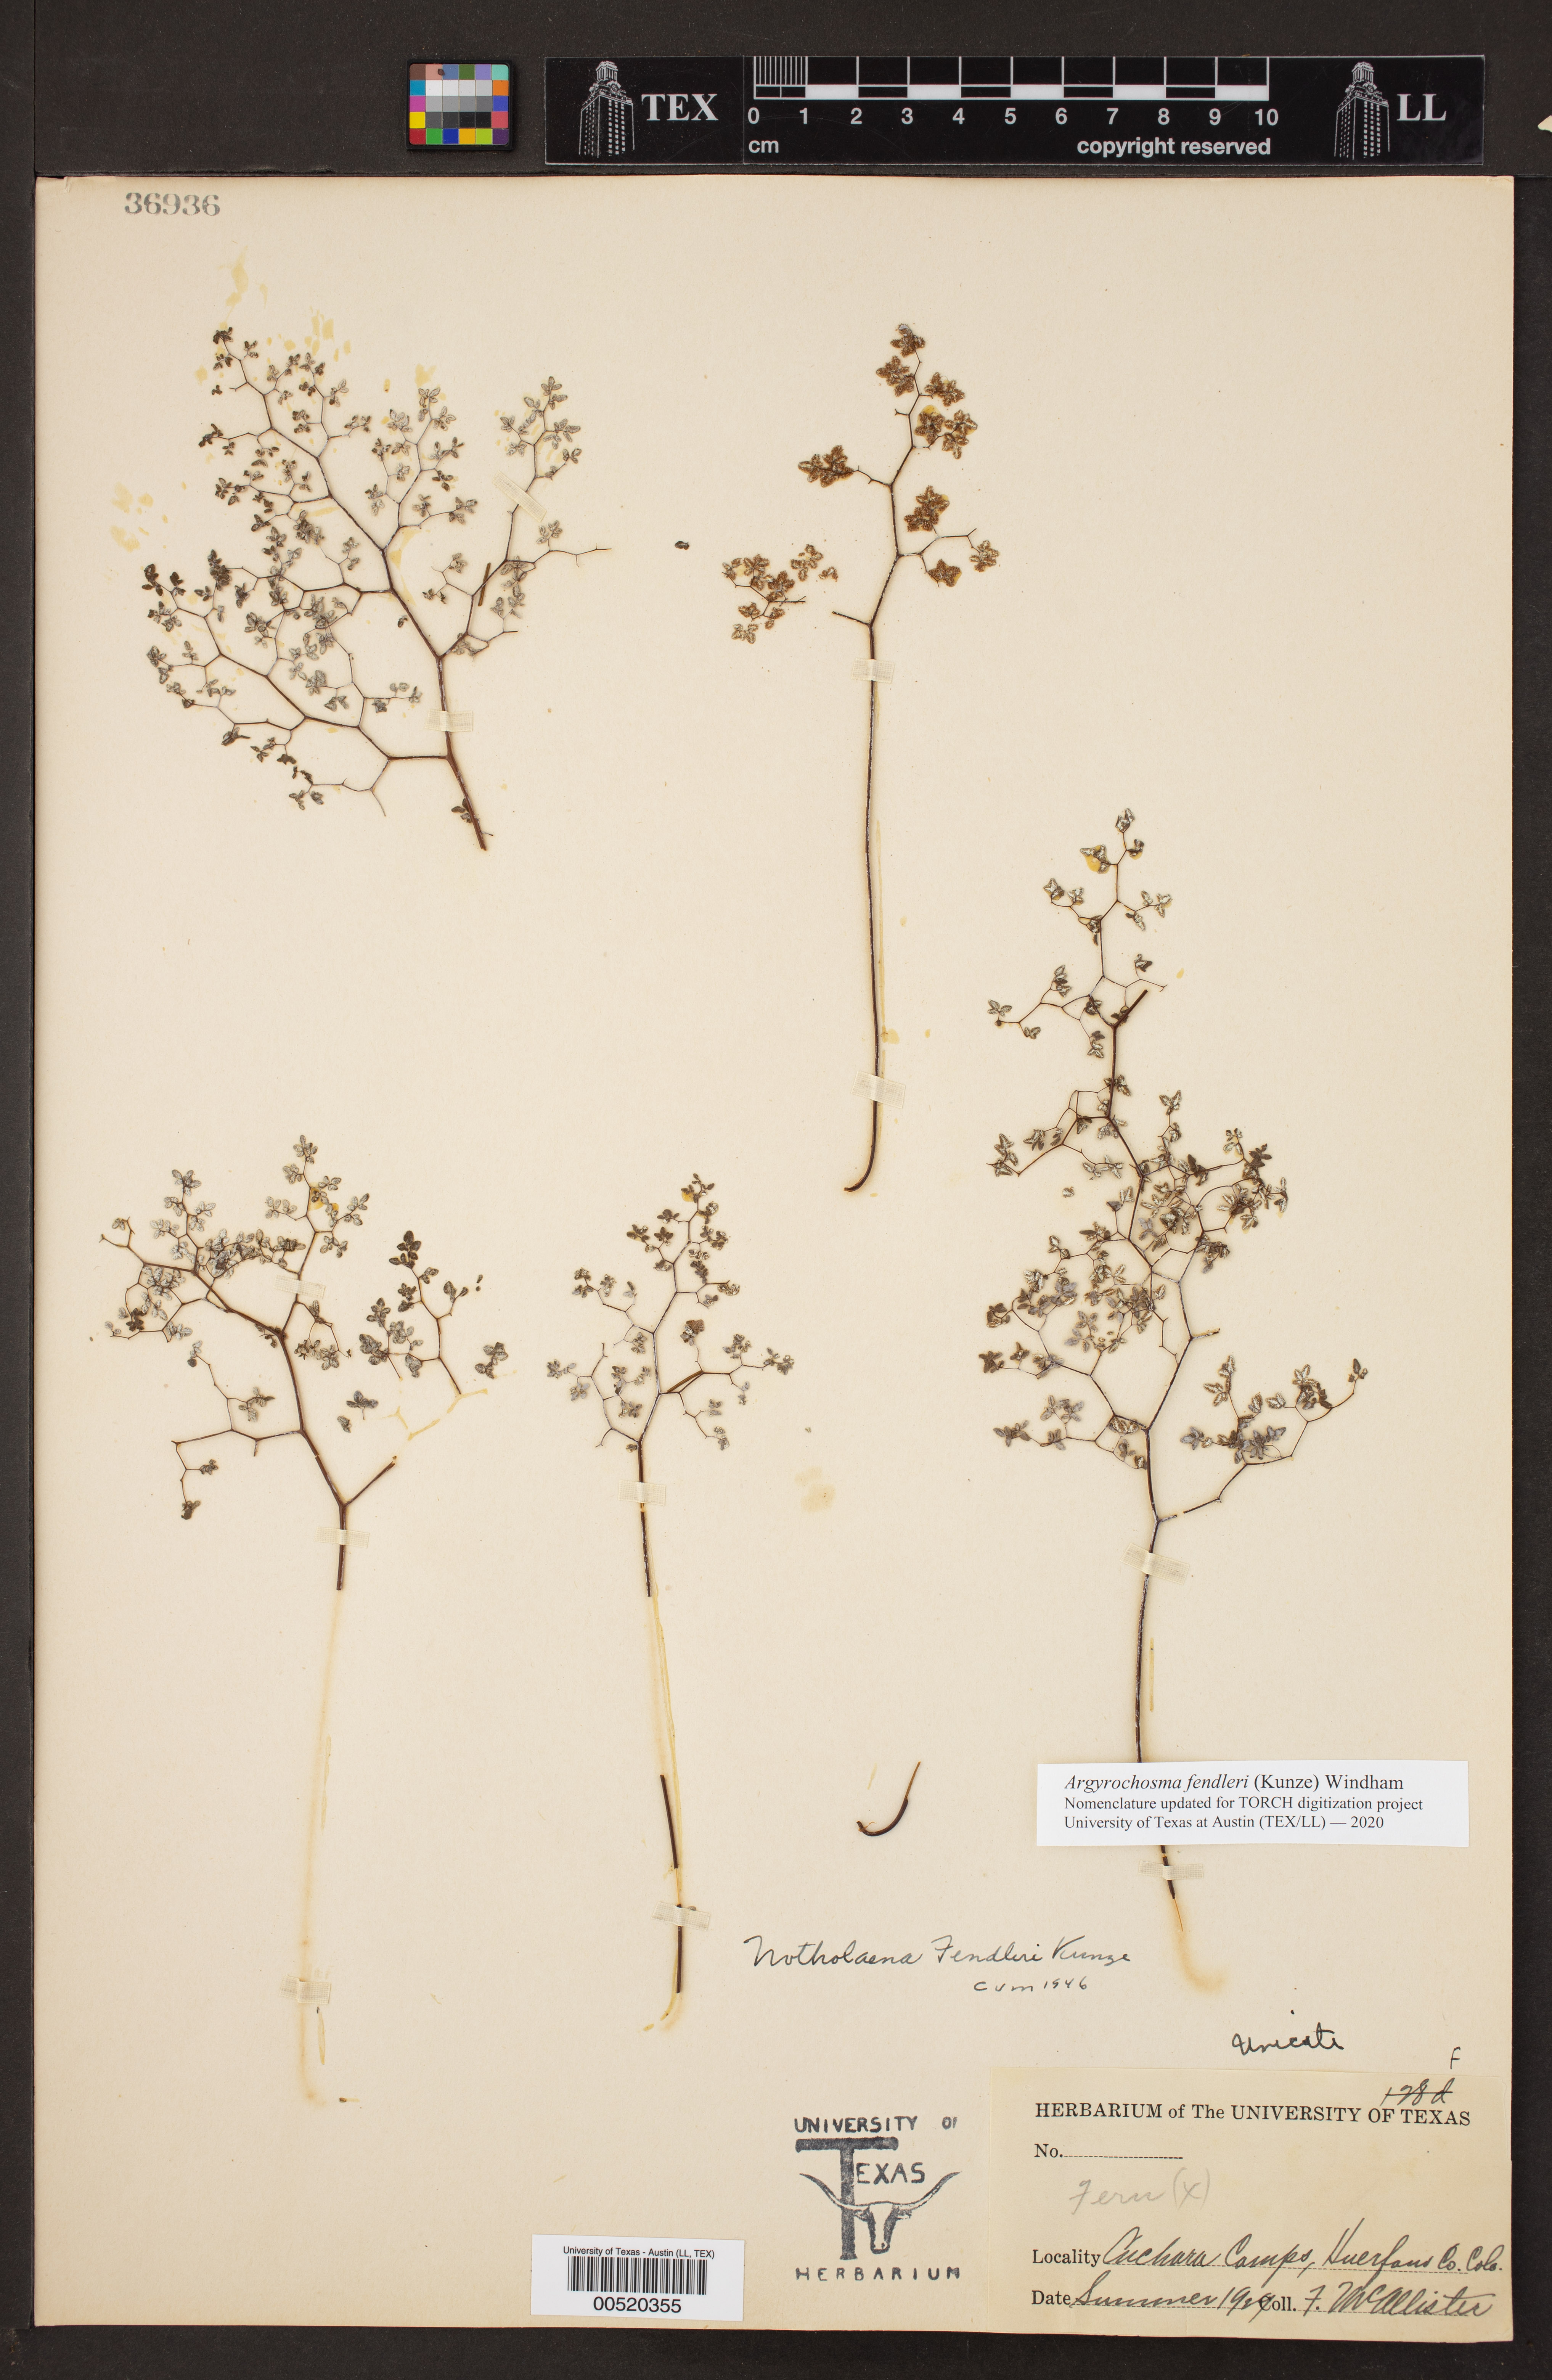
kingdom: Plantae
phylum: Tracheophyta
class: Polypodiopsida
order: Polypodiales
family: Pteridaceae
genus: Argyrochosma
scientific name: Argyrochosma fendleri
